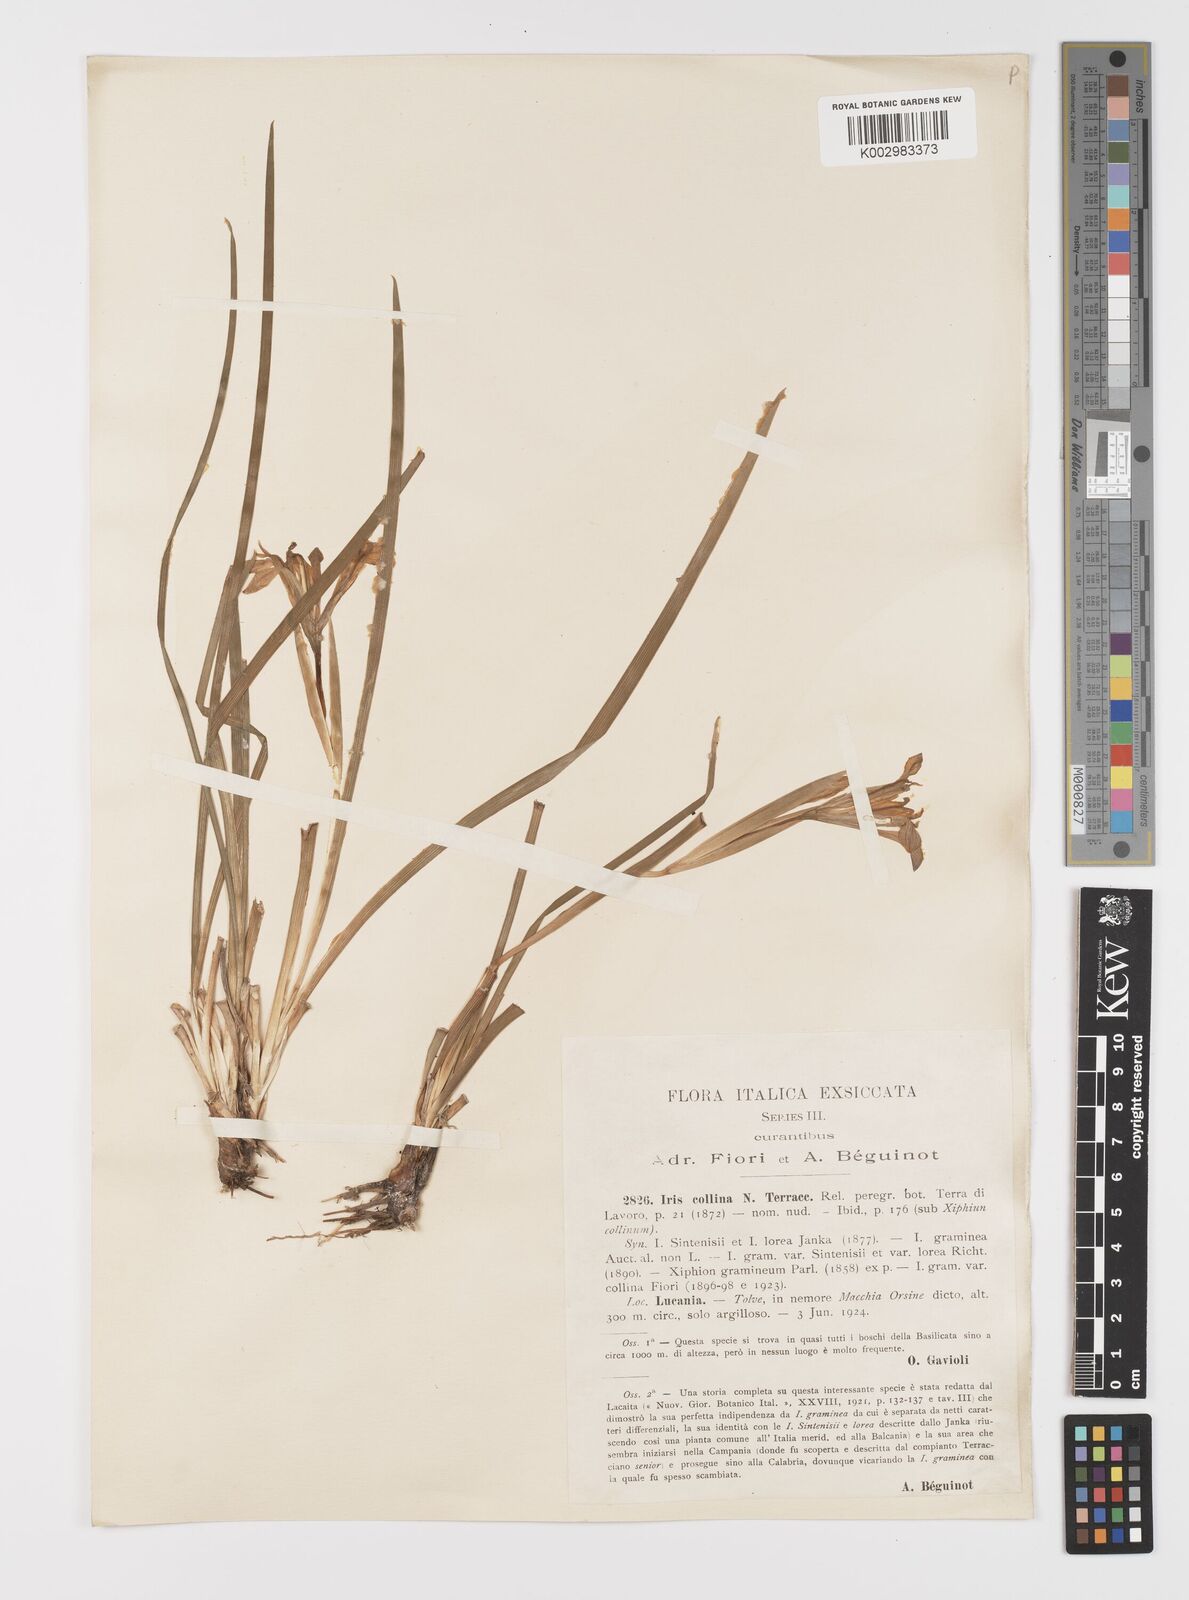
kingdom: Plantae
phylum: Tracheophyta
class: Liliopsida
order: Asparagales
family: Iridaceae
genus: Moraea
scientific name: Moraea sisyrinchium
